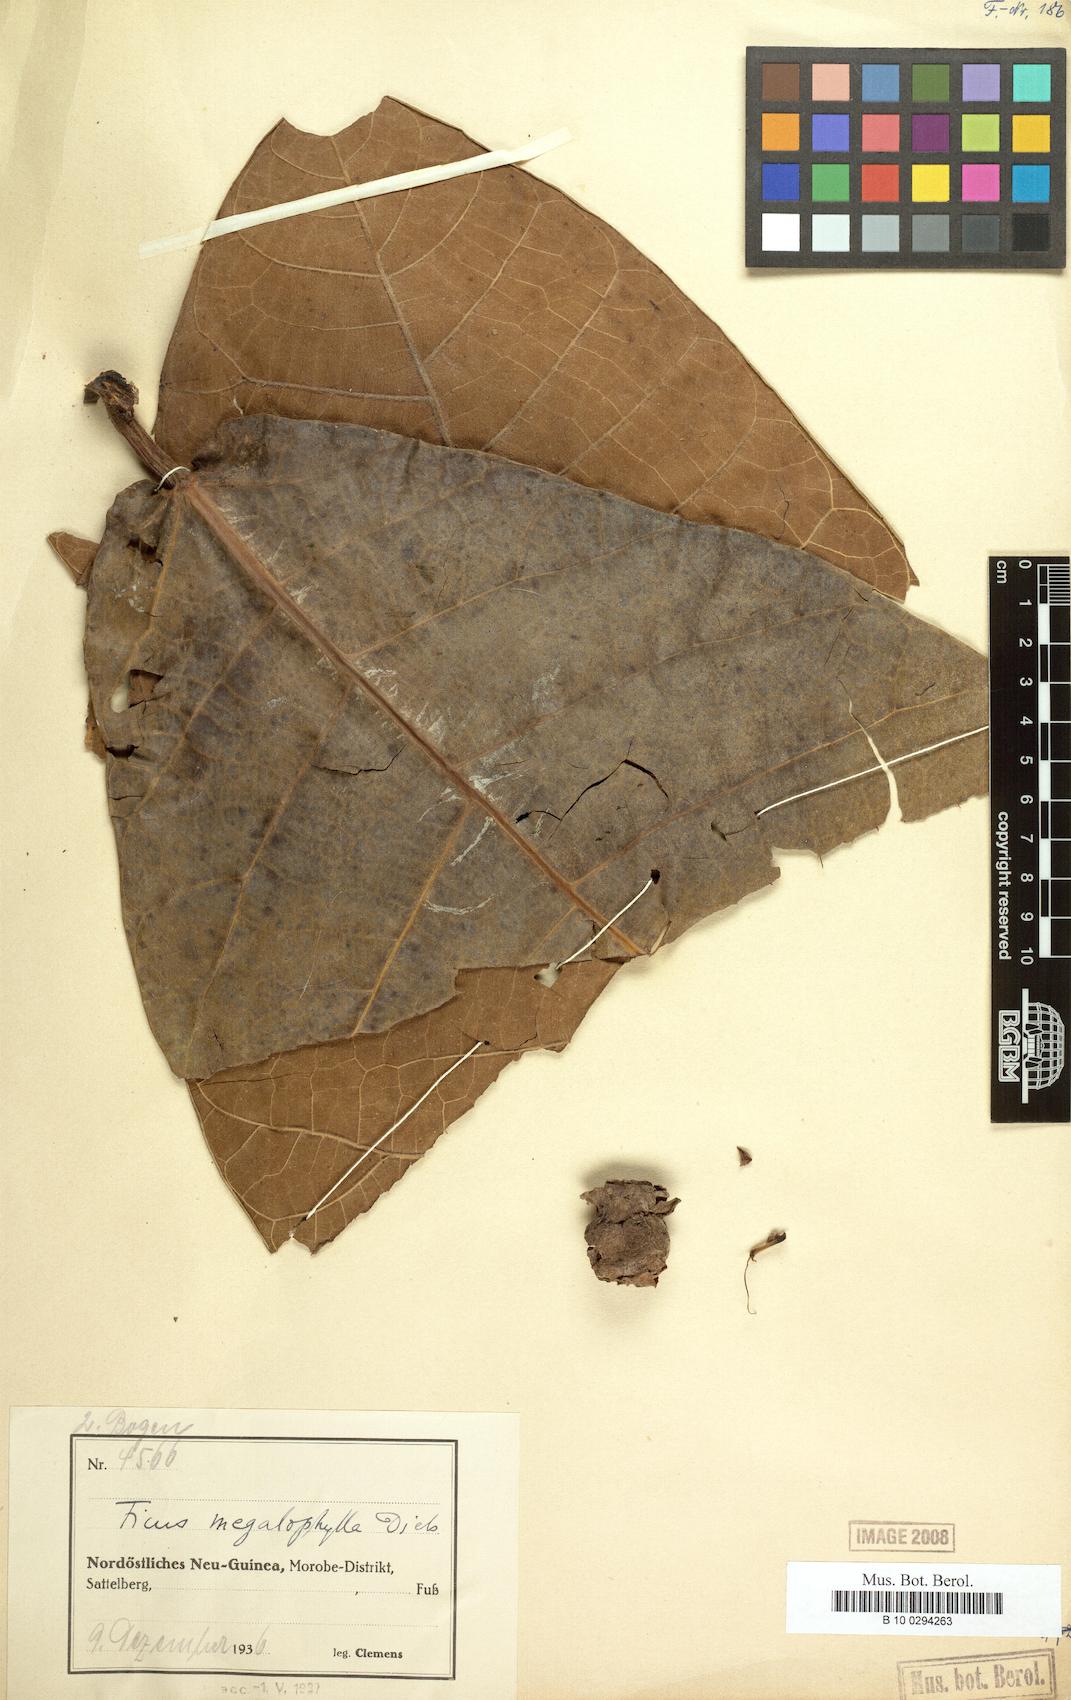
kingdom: Plantae
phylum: Tracheophyta
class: Magnoliopsida
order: Rosales
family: Moraceae
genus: Ficus
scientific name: Ficus megalophylla
